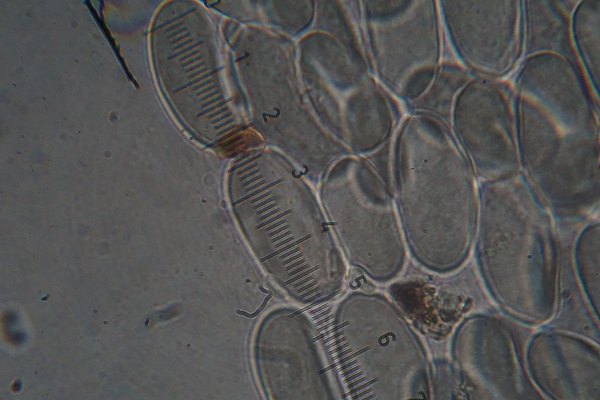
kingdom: Fungi
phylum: Mucoromycota
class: Mucoromycetes
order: Mucorales
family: Phycomycetaceae
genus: Phycomyces
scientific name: Phycomyces nitens
